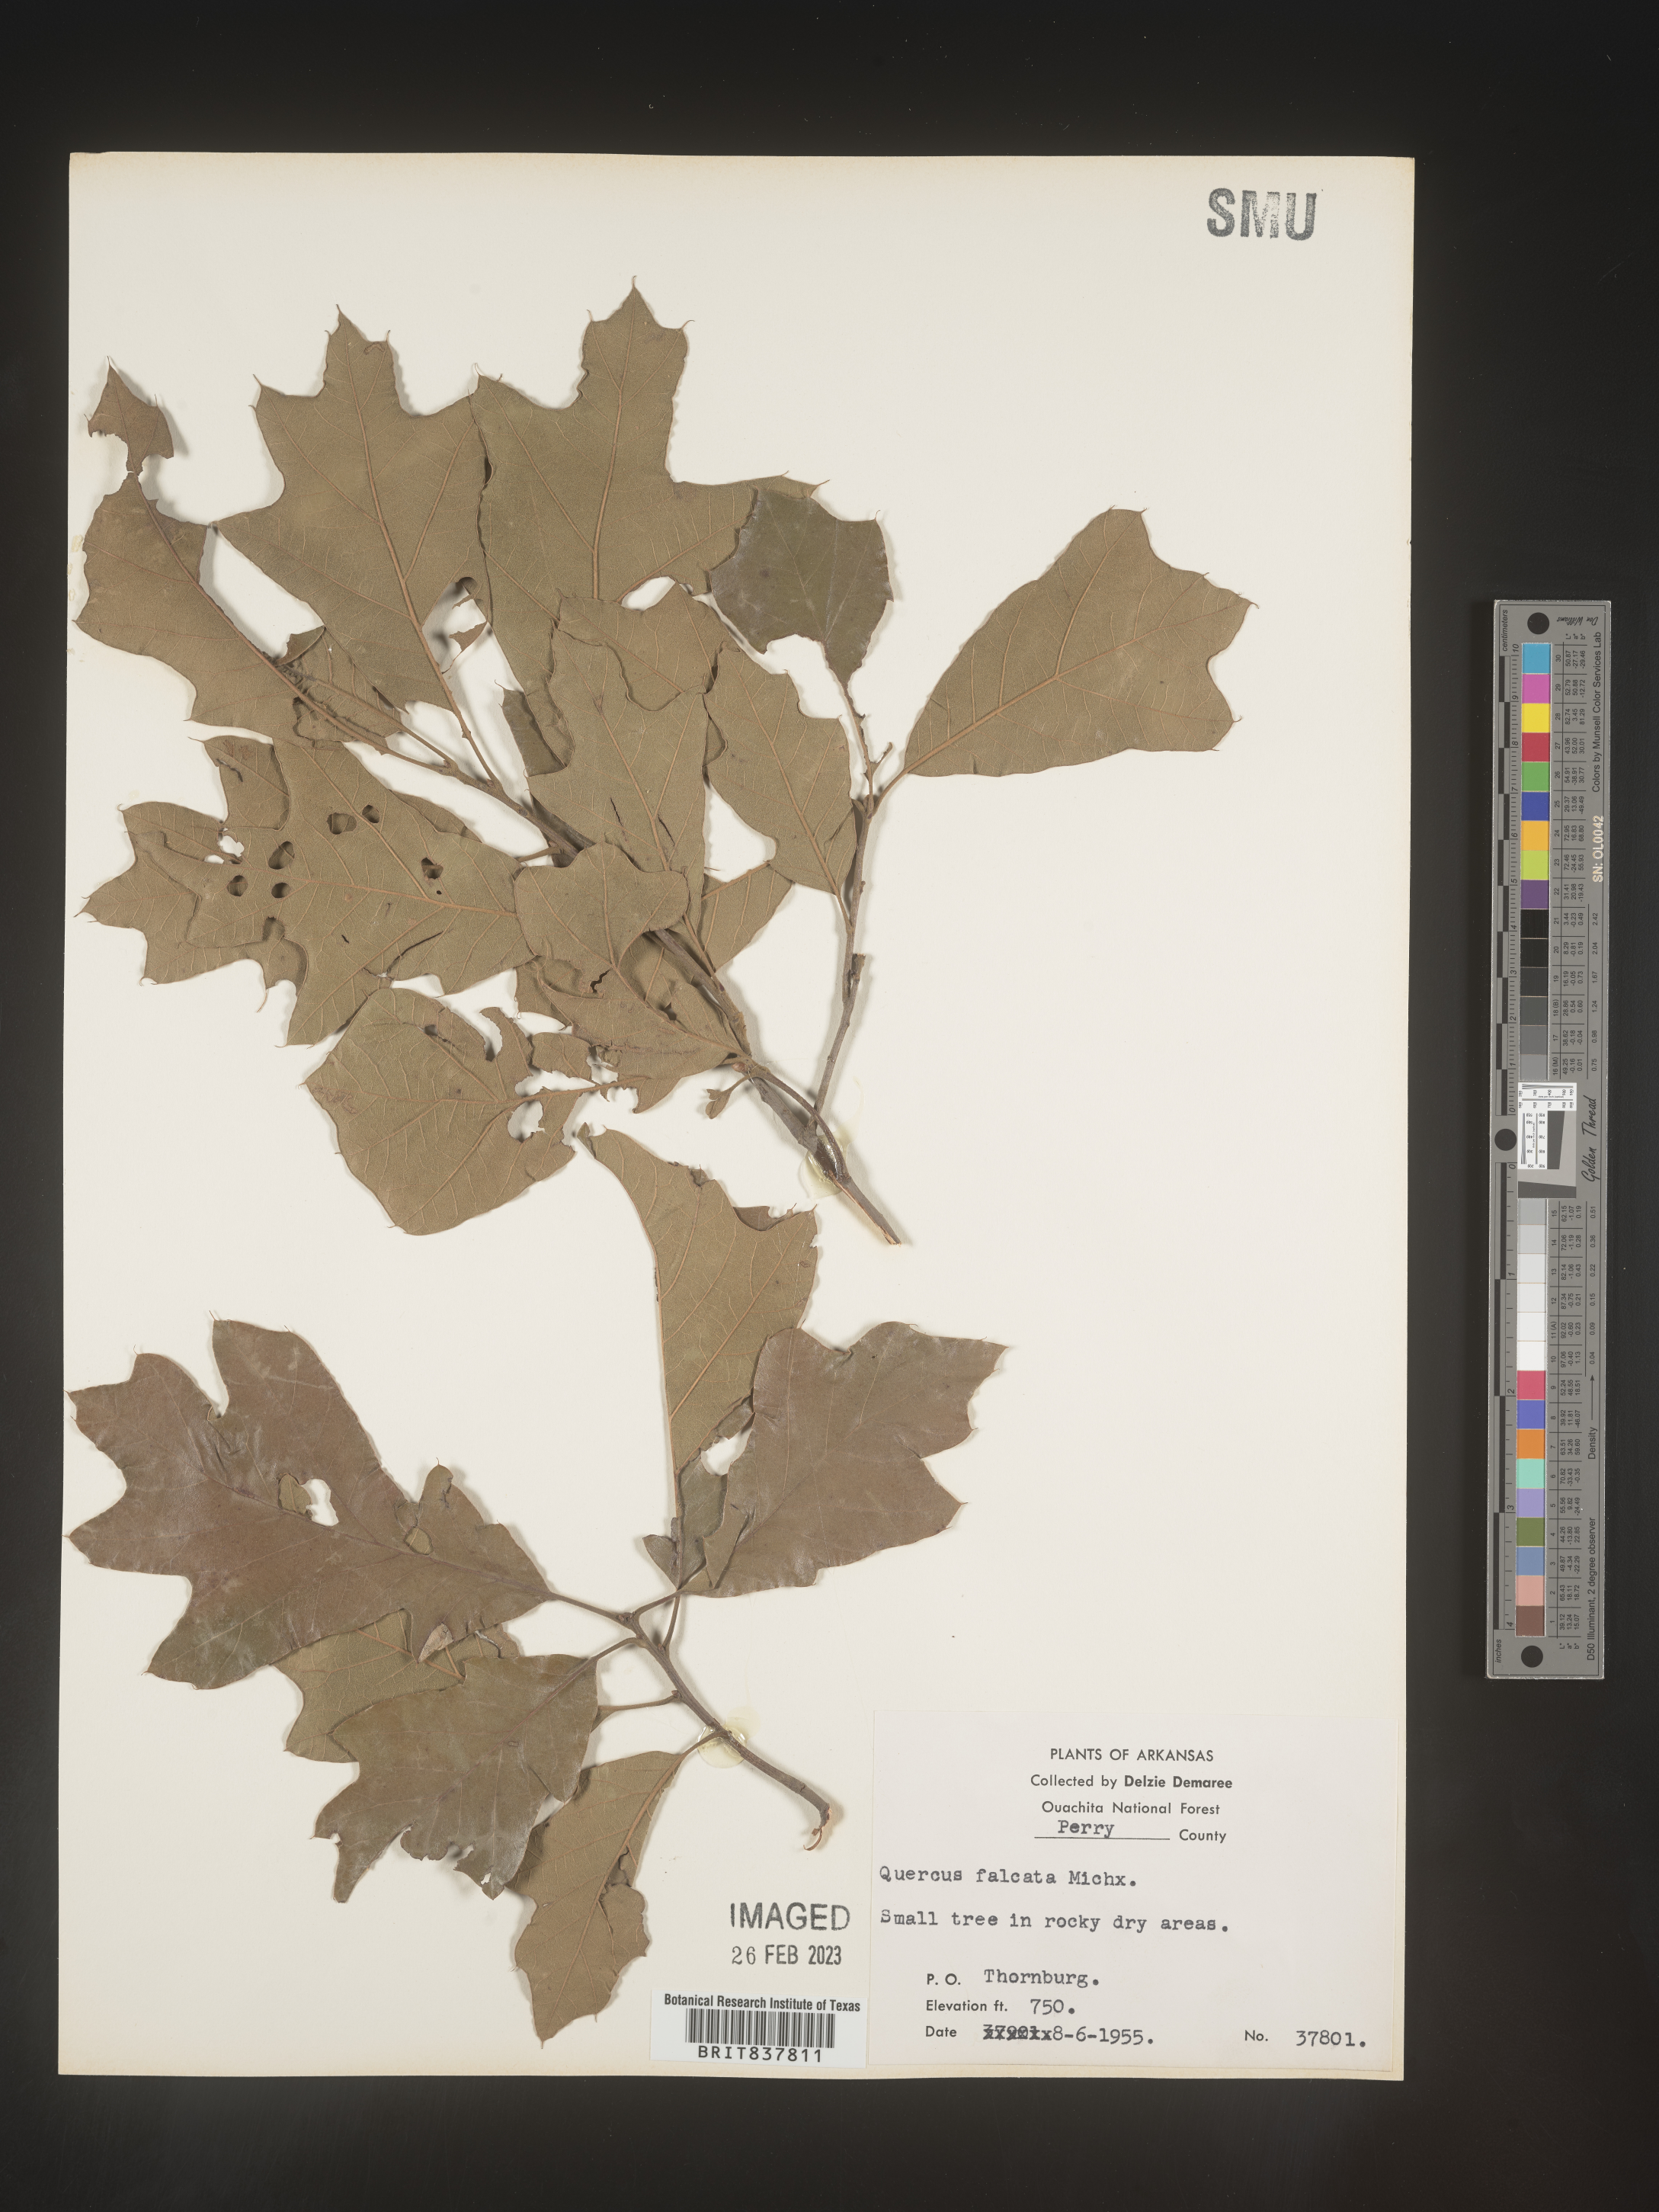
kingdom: Plantae
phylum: Tracheophyta
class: Magnoliopsida
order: Fagales
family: Fagaceae
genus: Quercus
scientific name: Quercus arkansana
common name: Arkansas oak
